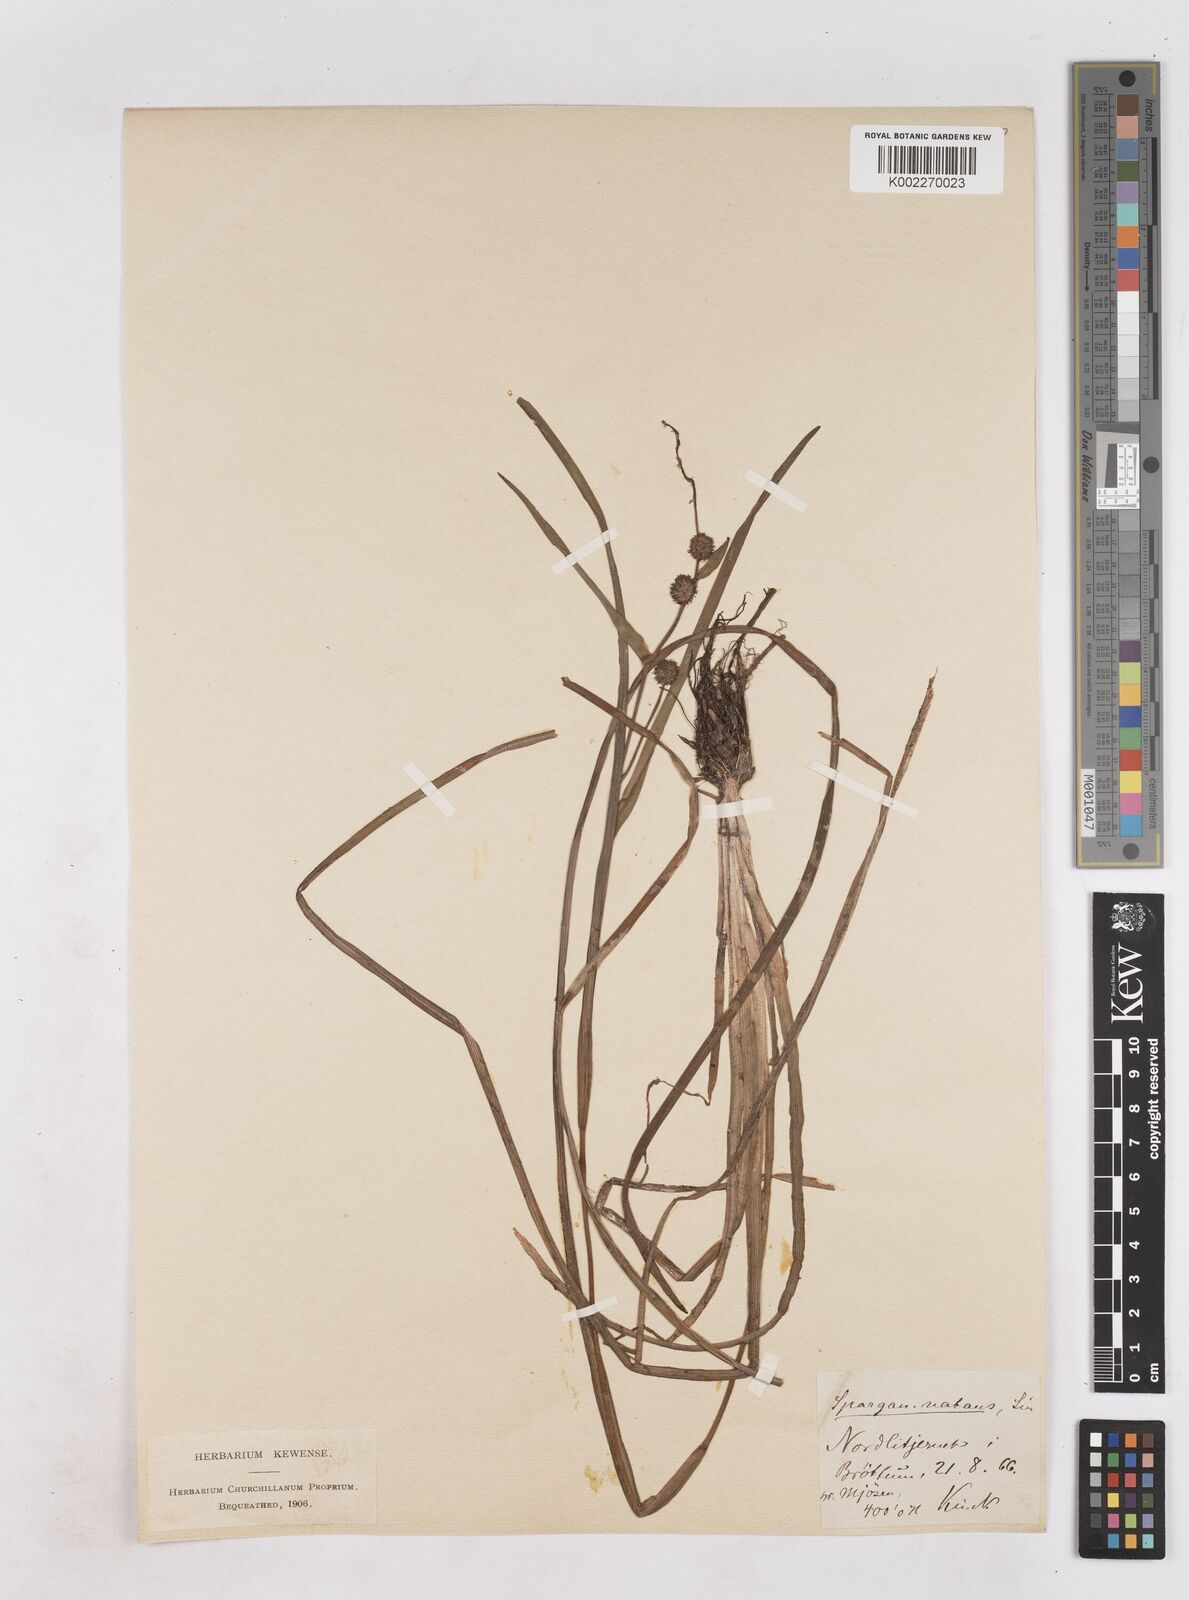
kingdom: Plantae
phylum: Tracheophyta
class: Liliopsida
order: Poales
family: Typhaceae
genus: Sparganium
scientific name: Sparganium gramineum
